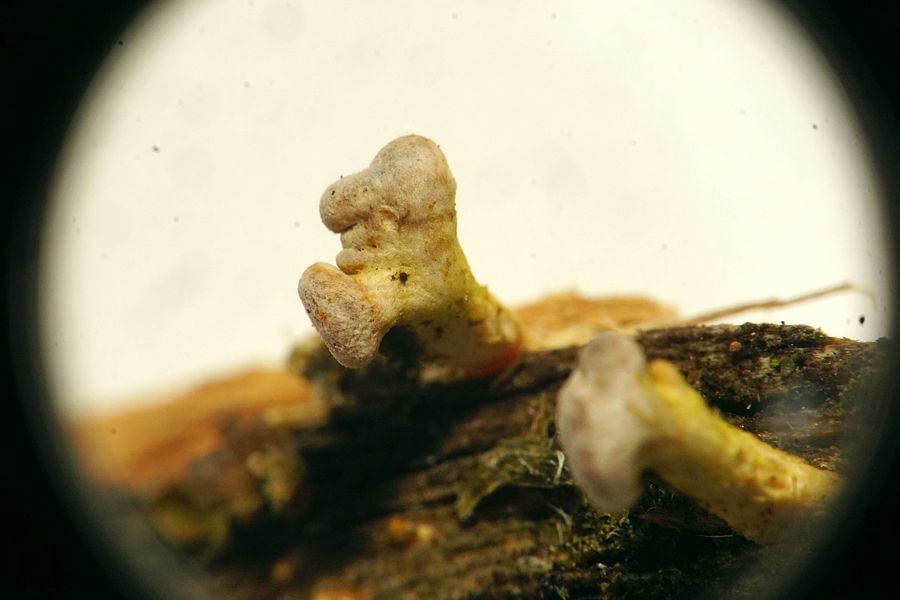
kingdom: Fungi
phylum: Basidiomycota
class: Dacrymycetes
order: Dacrymycetales
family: Dacrymycetaceae
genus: Ditiola
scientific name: Ditiola radicata
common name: rod-tåresvamp
